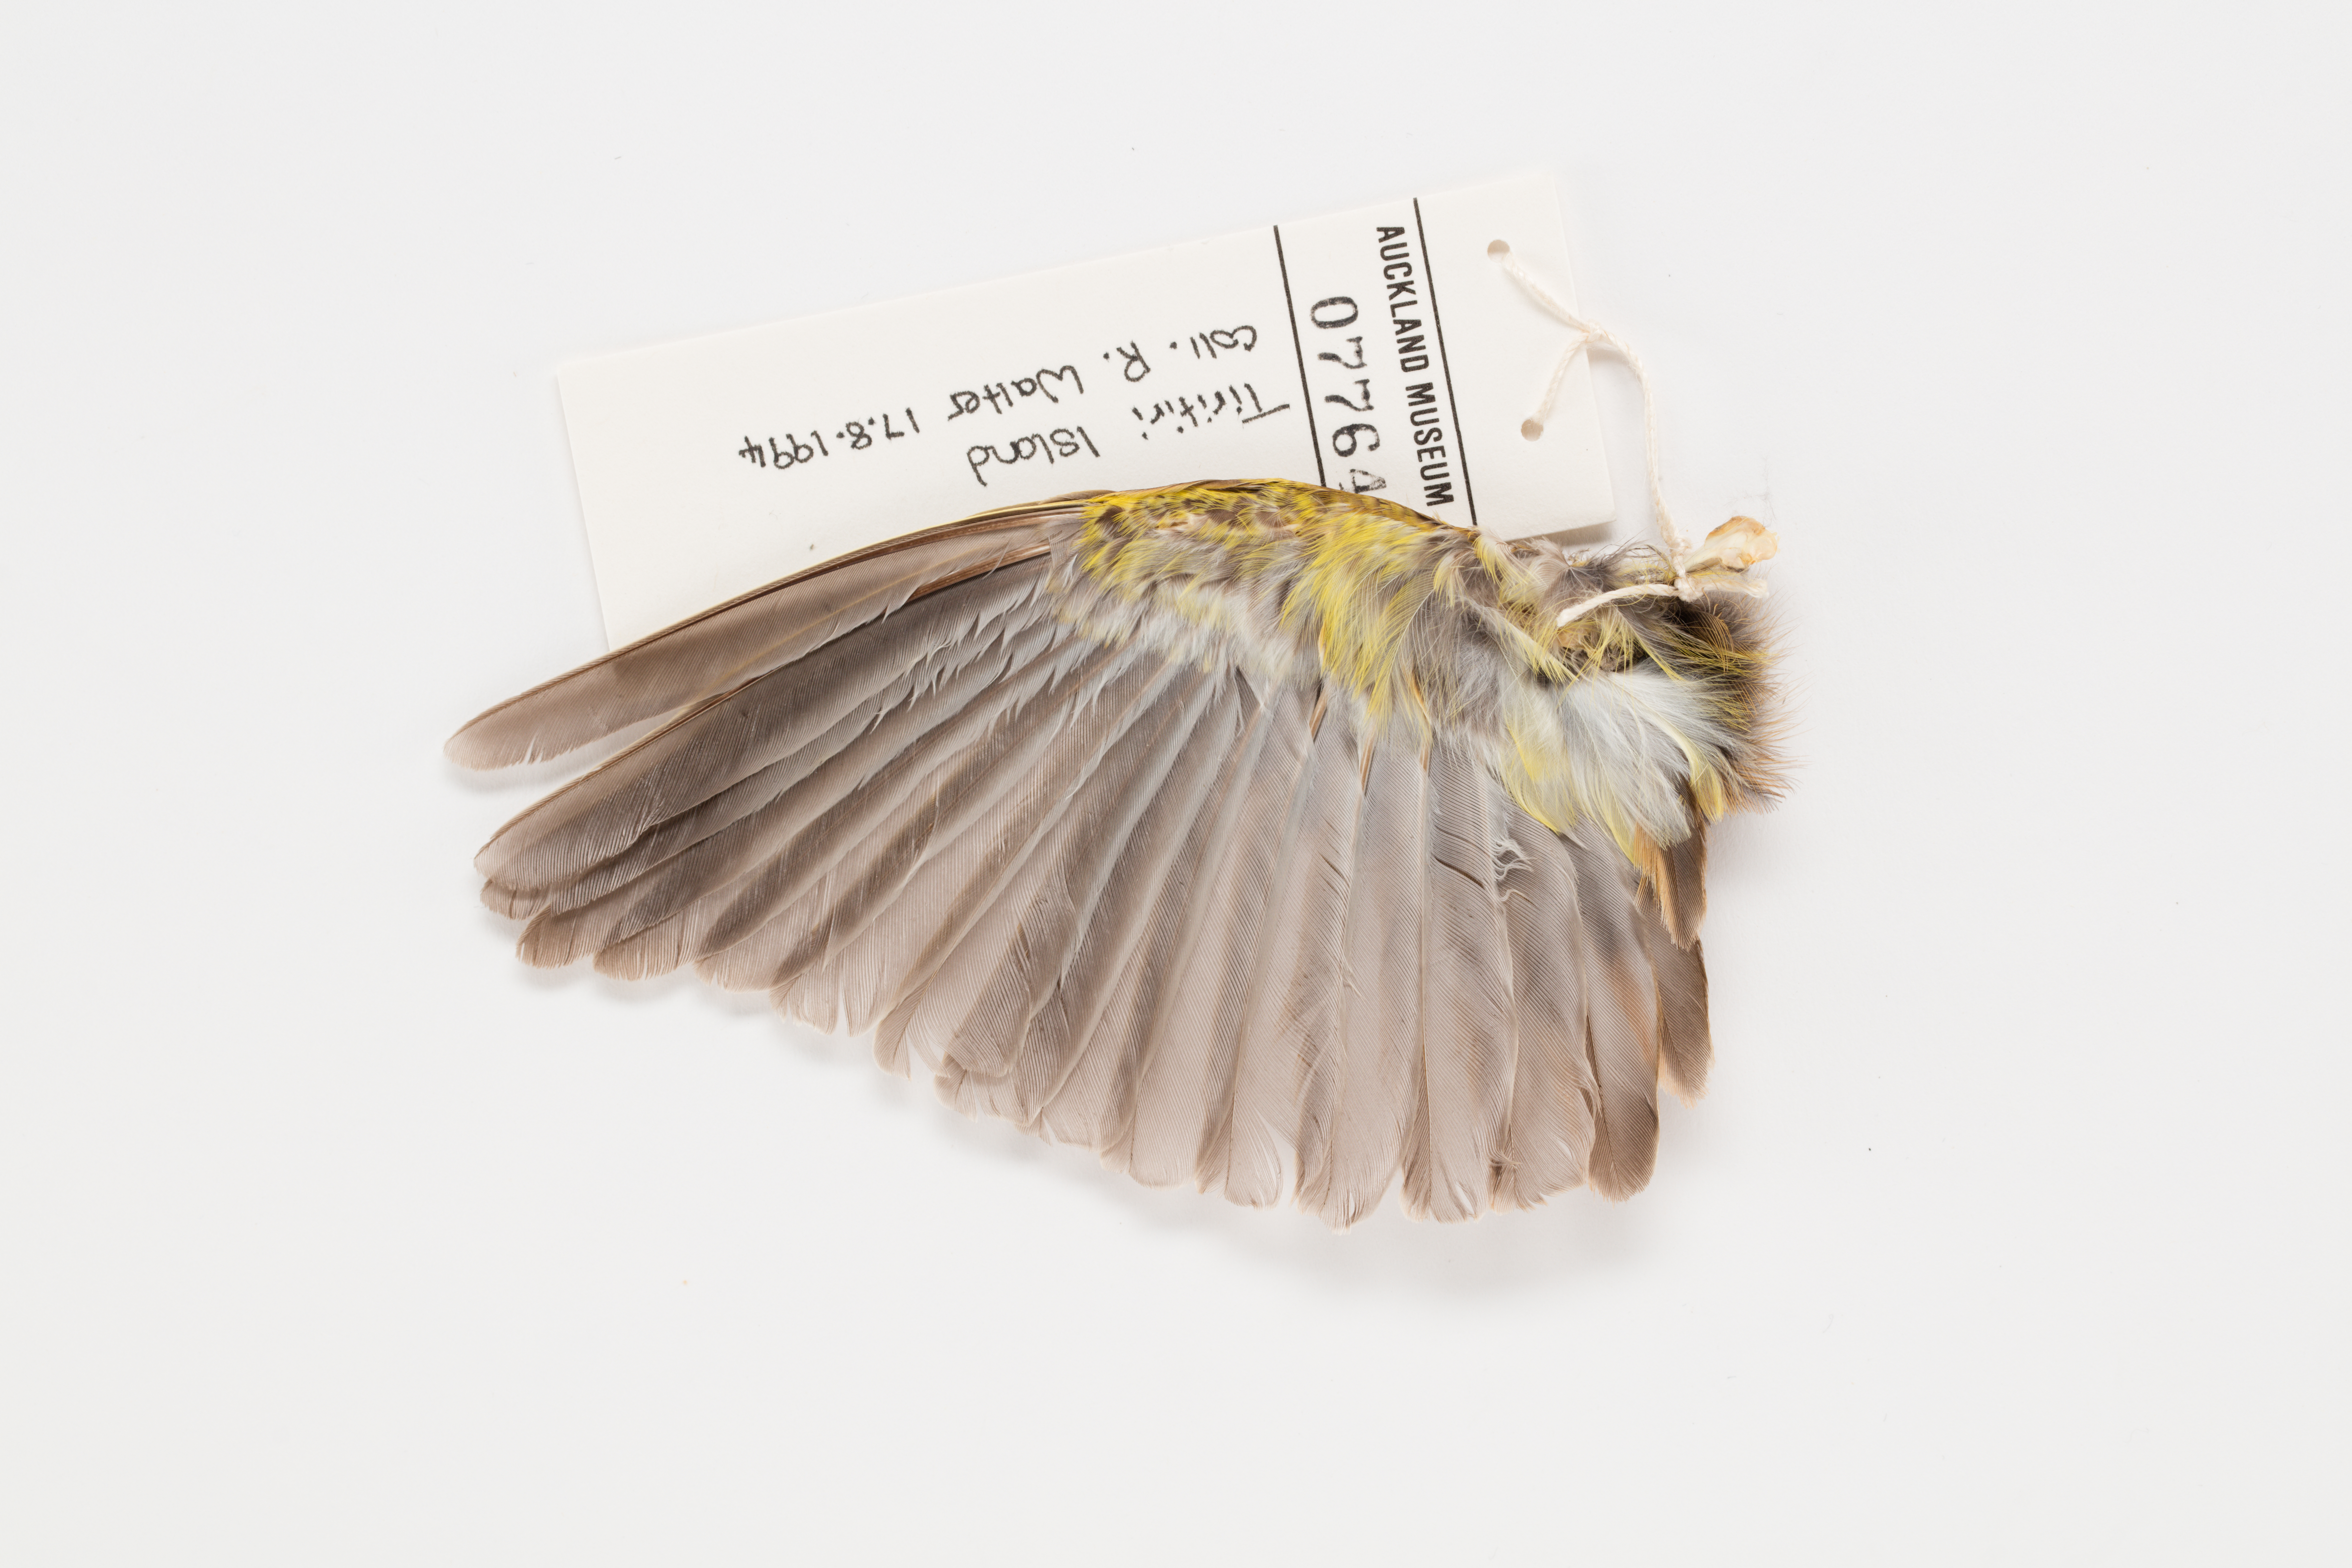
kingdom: Animalia
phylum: Chordata
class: Aves
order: Passeriformes
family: Emberizidae
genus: Emberiza
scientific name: Emberiza citrinella
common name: Yellowhammer
